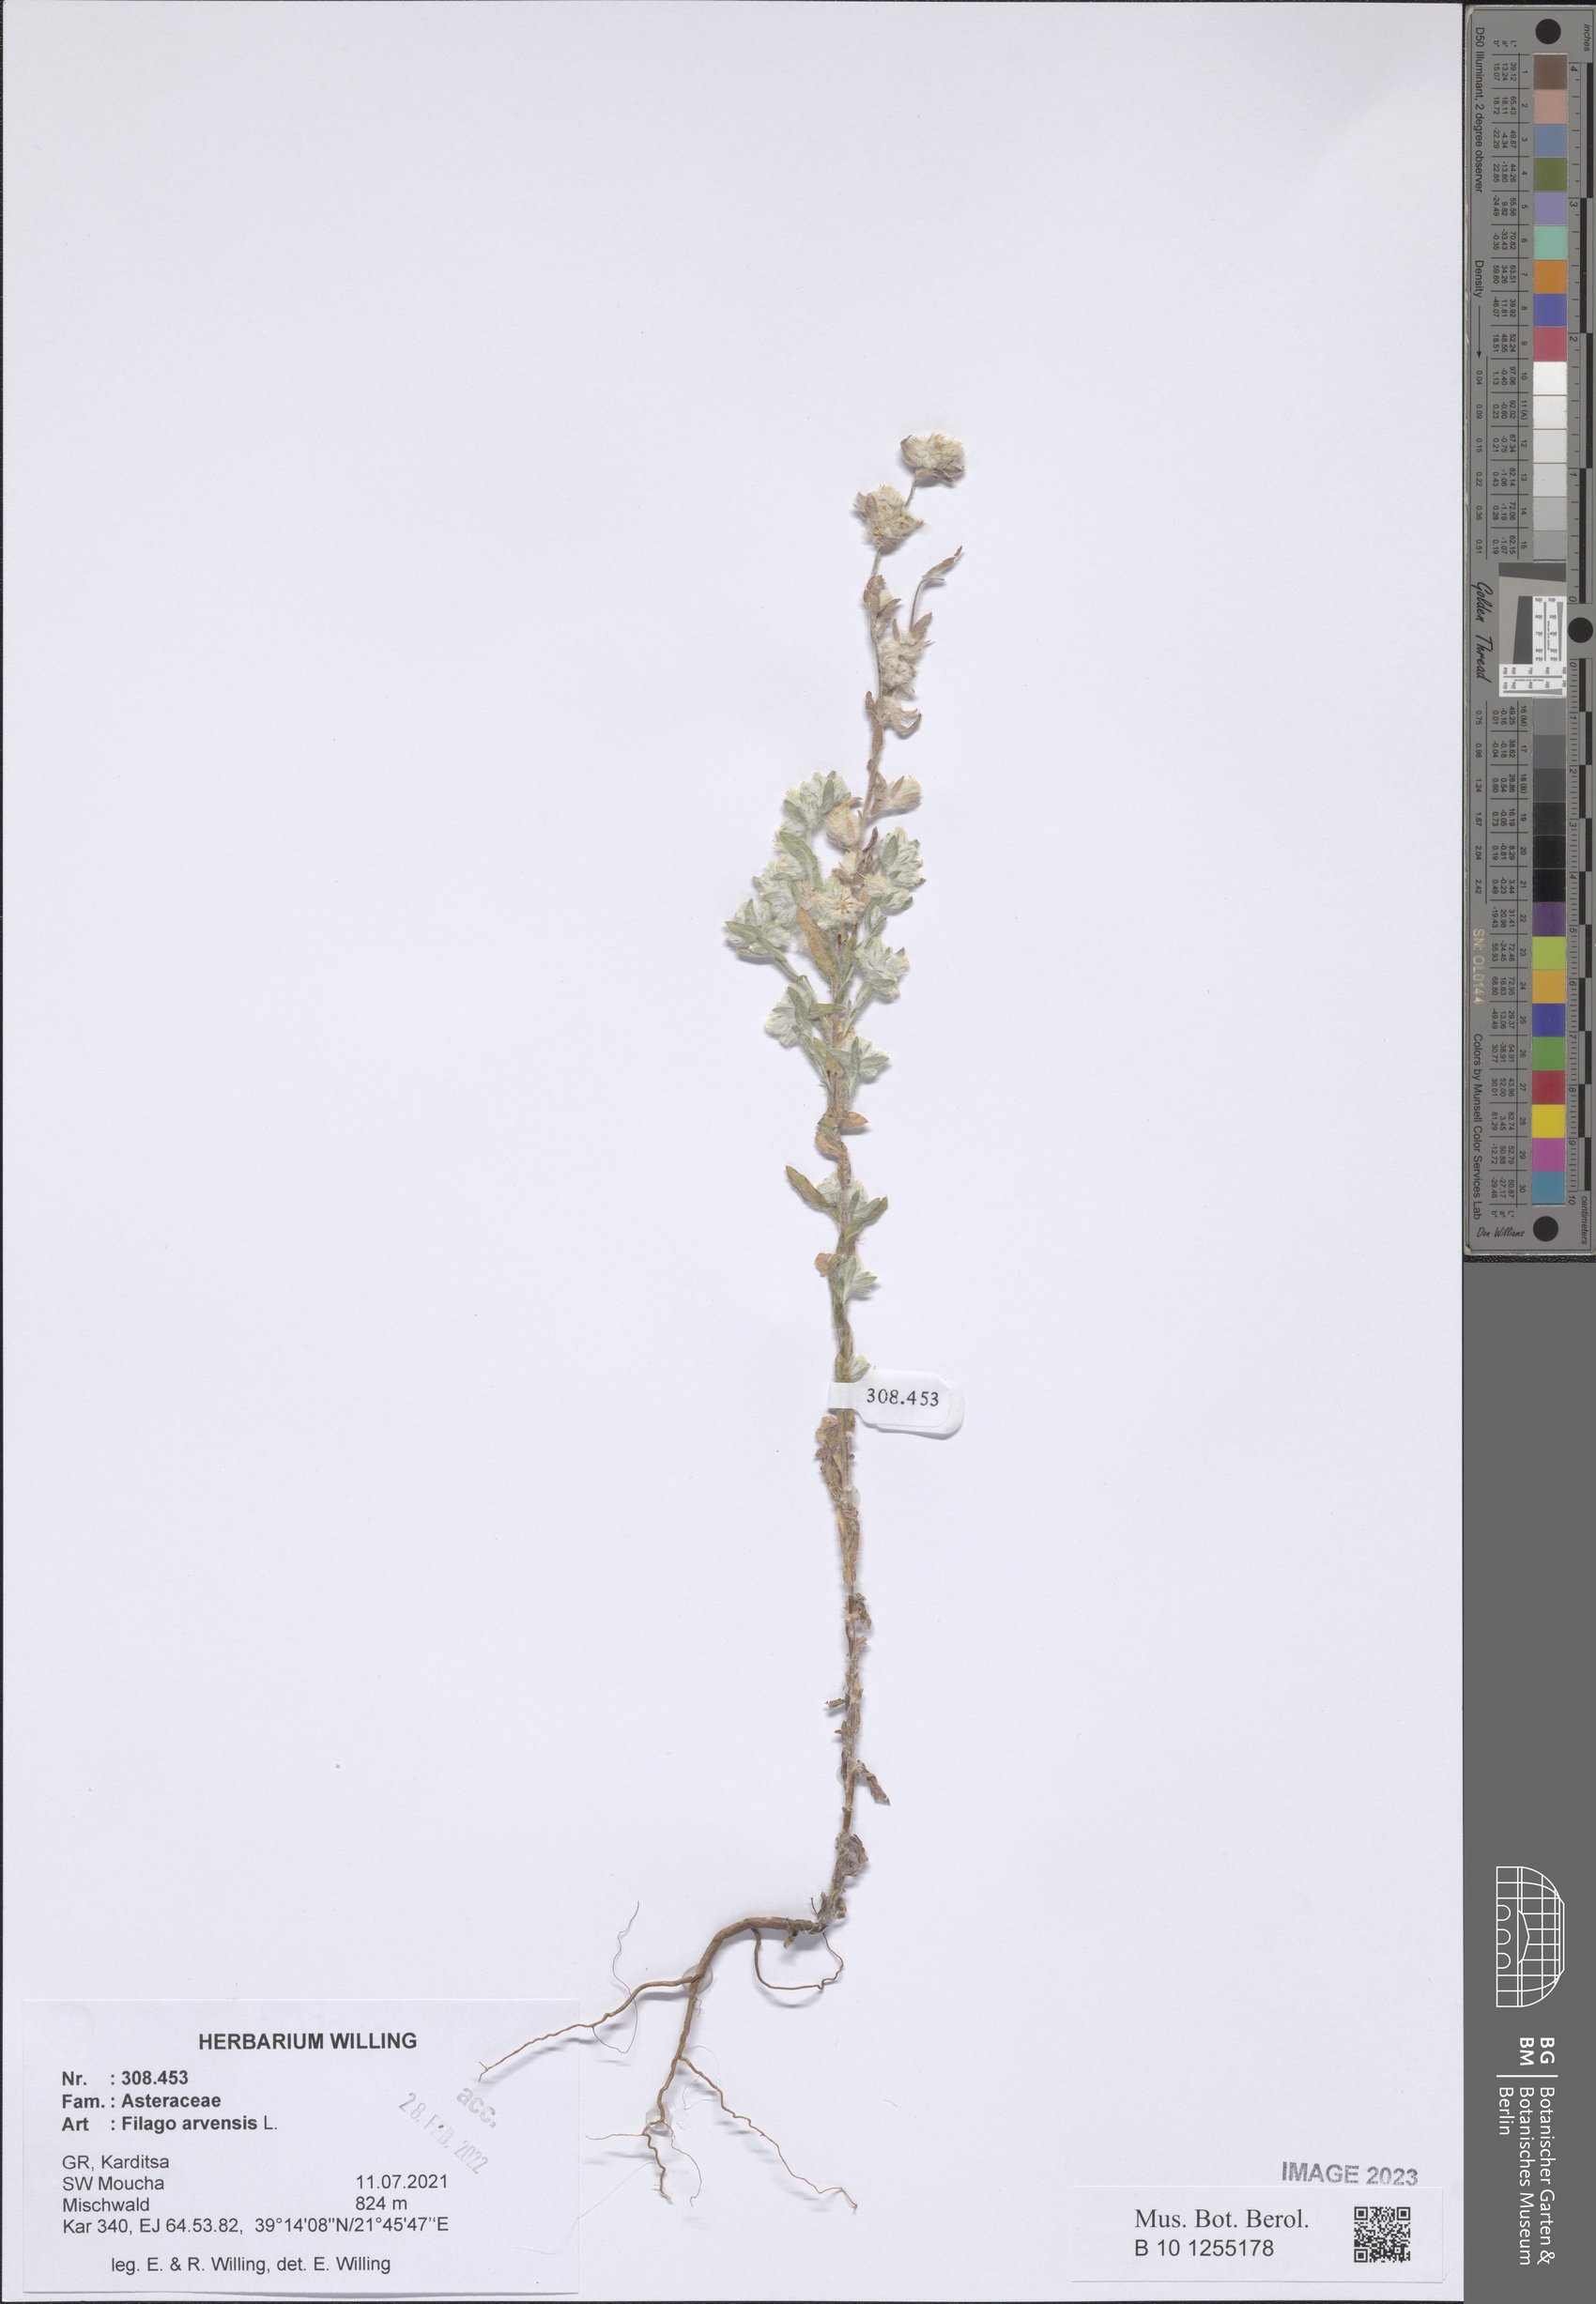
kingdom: Plantae
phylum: Tracheophyta
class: Magnoliopsida
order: Asterales
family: Asteraceae
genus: Filago
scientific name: Filago arvensis
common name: Field cudweed
